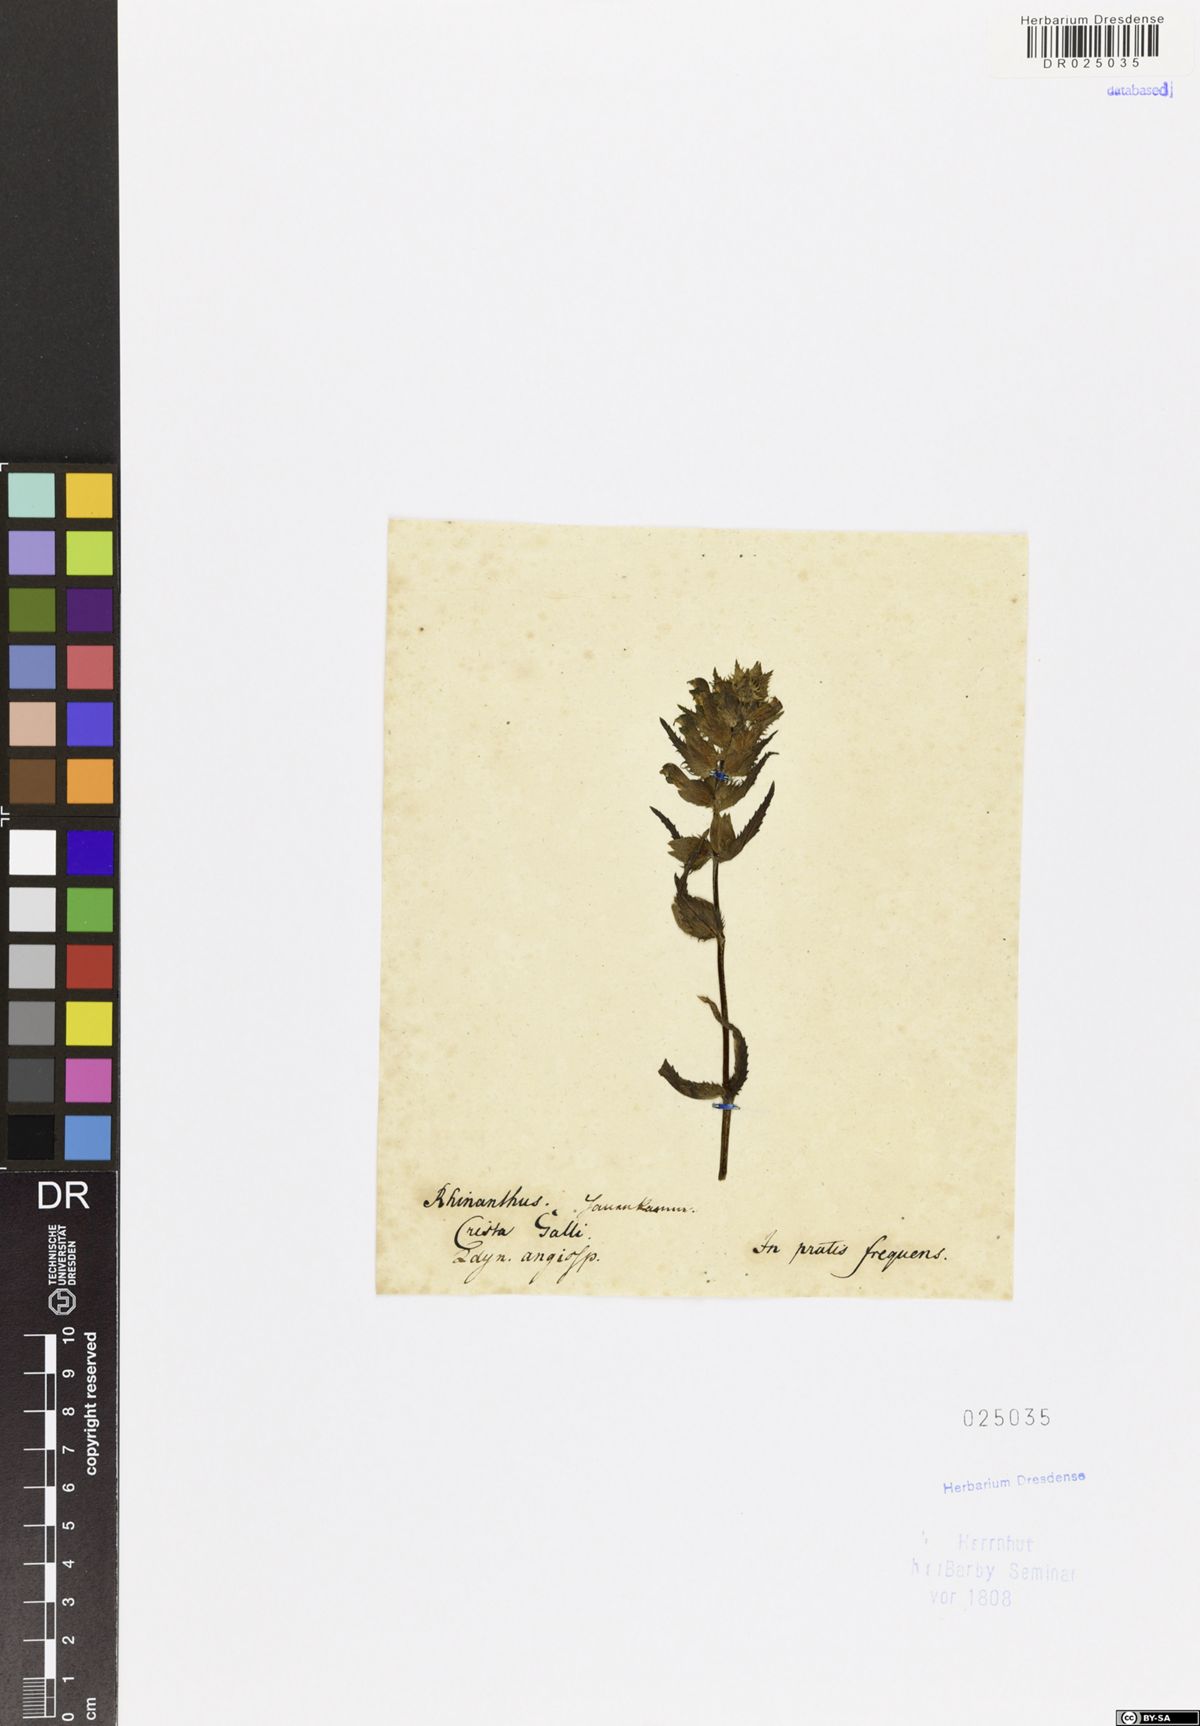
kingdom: Plantae
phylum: Tracheophyta
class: Magnoliopsida
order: Lamiales
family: Orobanchaceae
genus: Rhinanthus
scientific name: Rhinanthus serotinus
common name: Late-flowering yellow rattle
